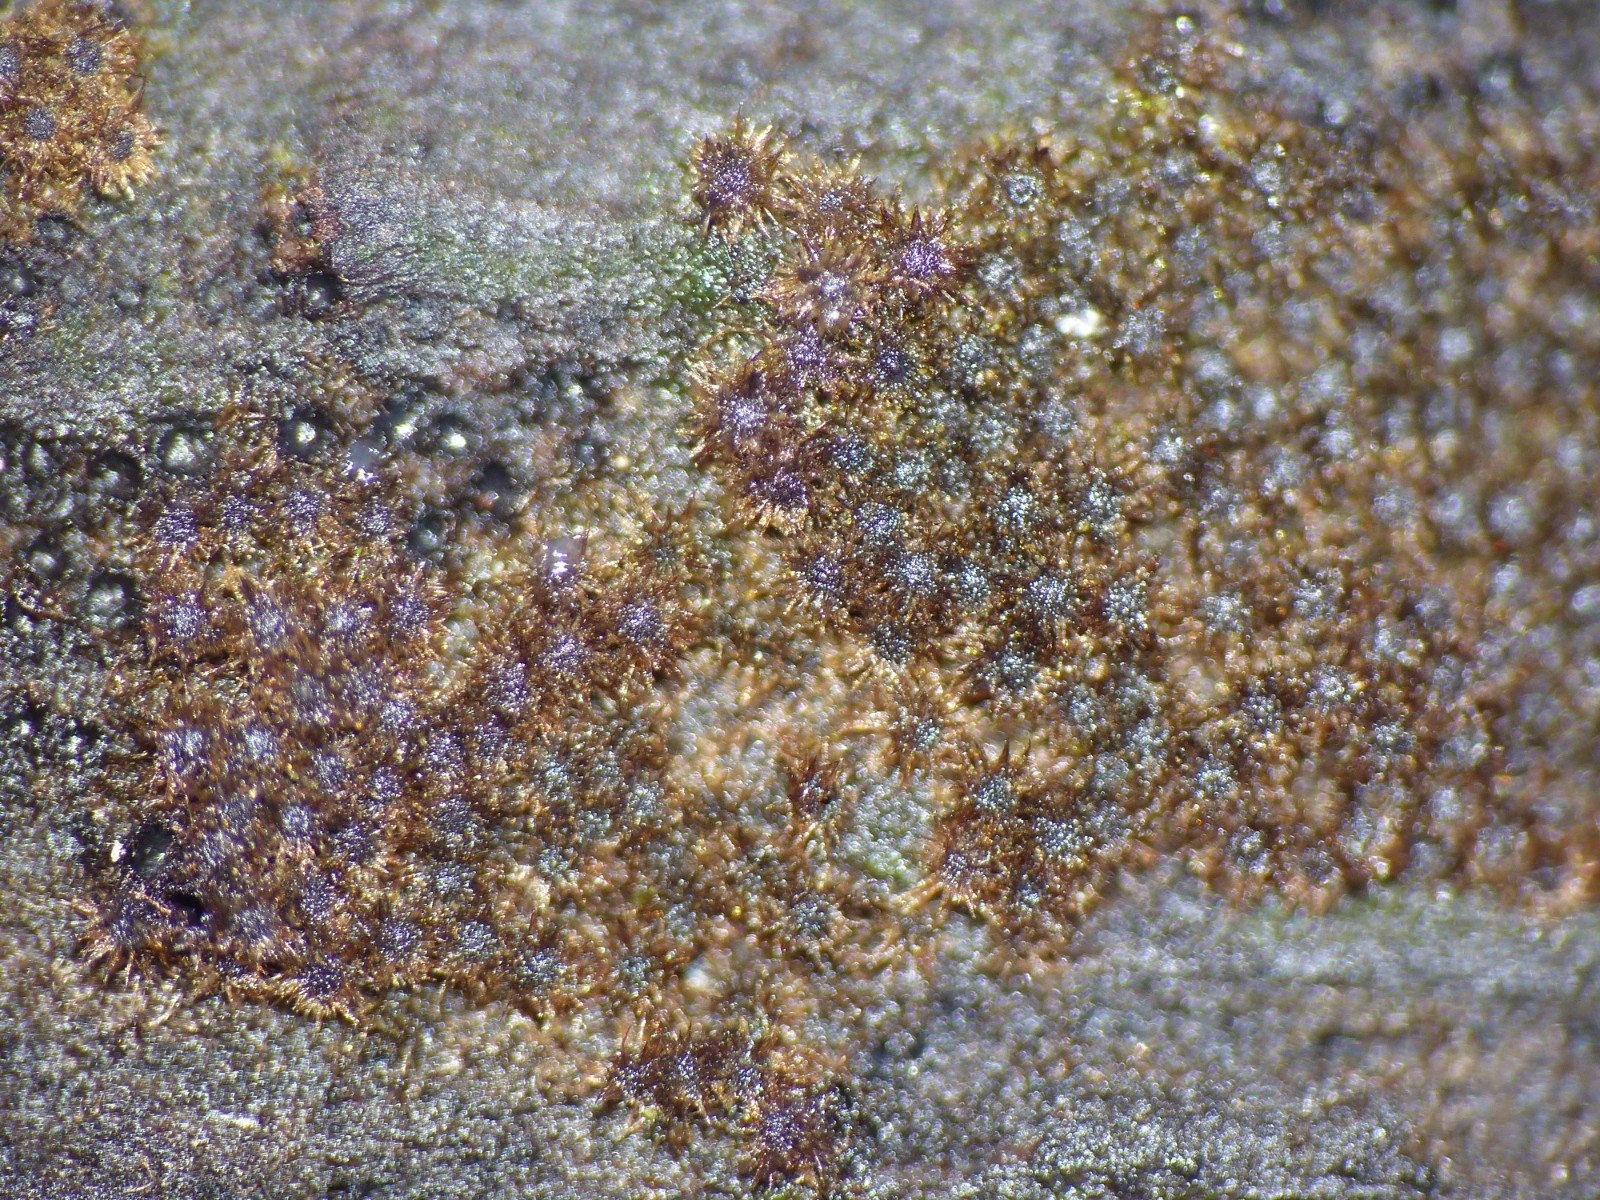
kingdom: Fungi
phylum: Ascomycota
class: Sordariomycetes
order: Sordariales
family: Helminthosphaeriaceae
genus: Echinosphaeria
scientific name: Echinosphaeria canescens
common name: brun børstekerne
